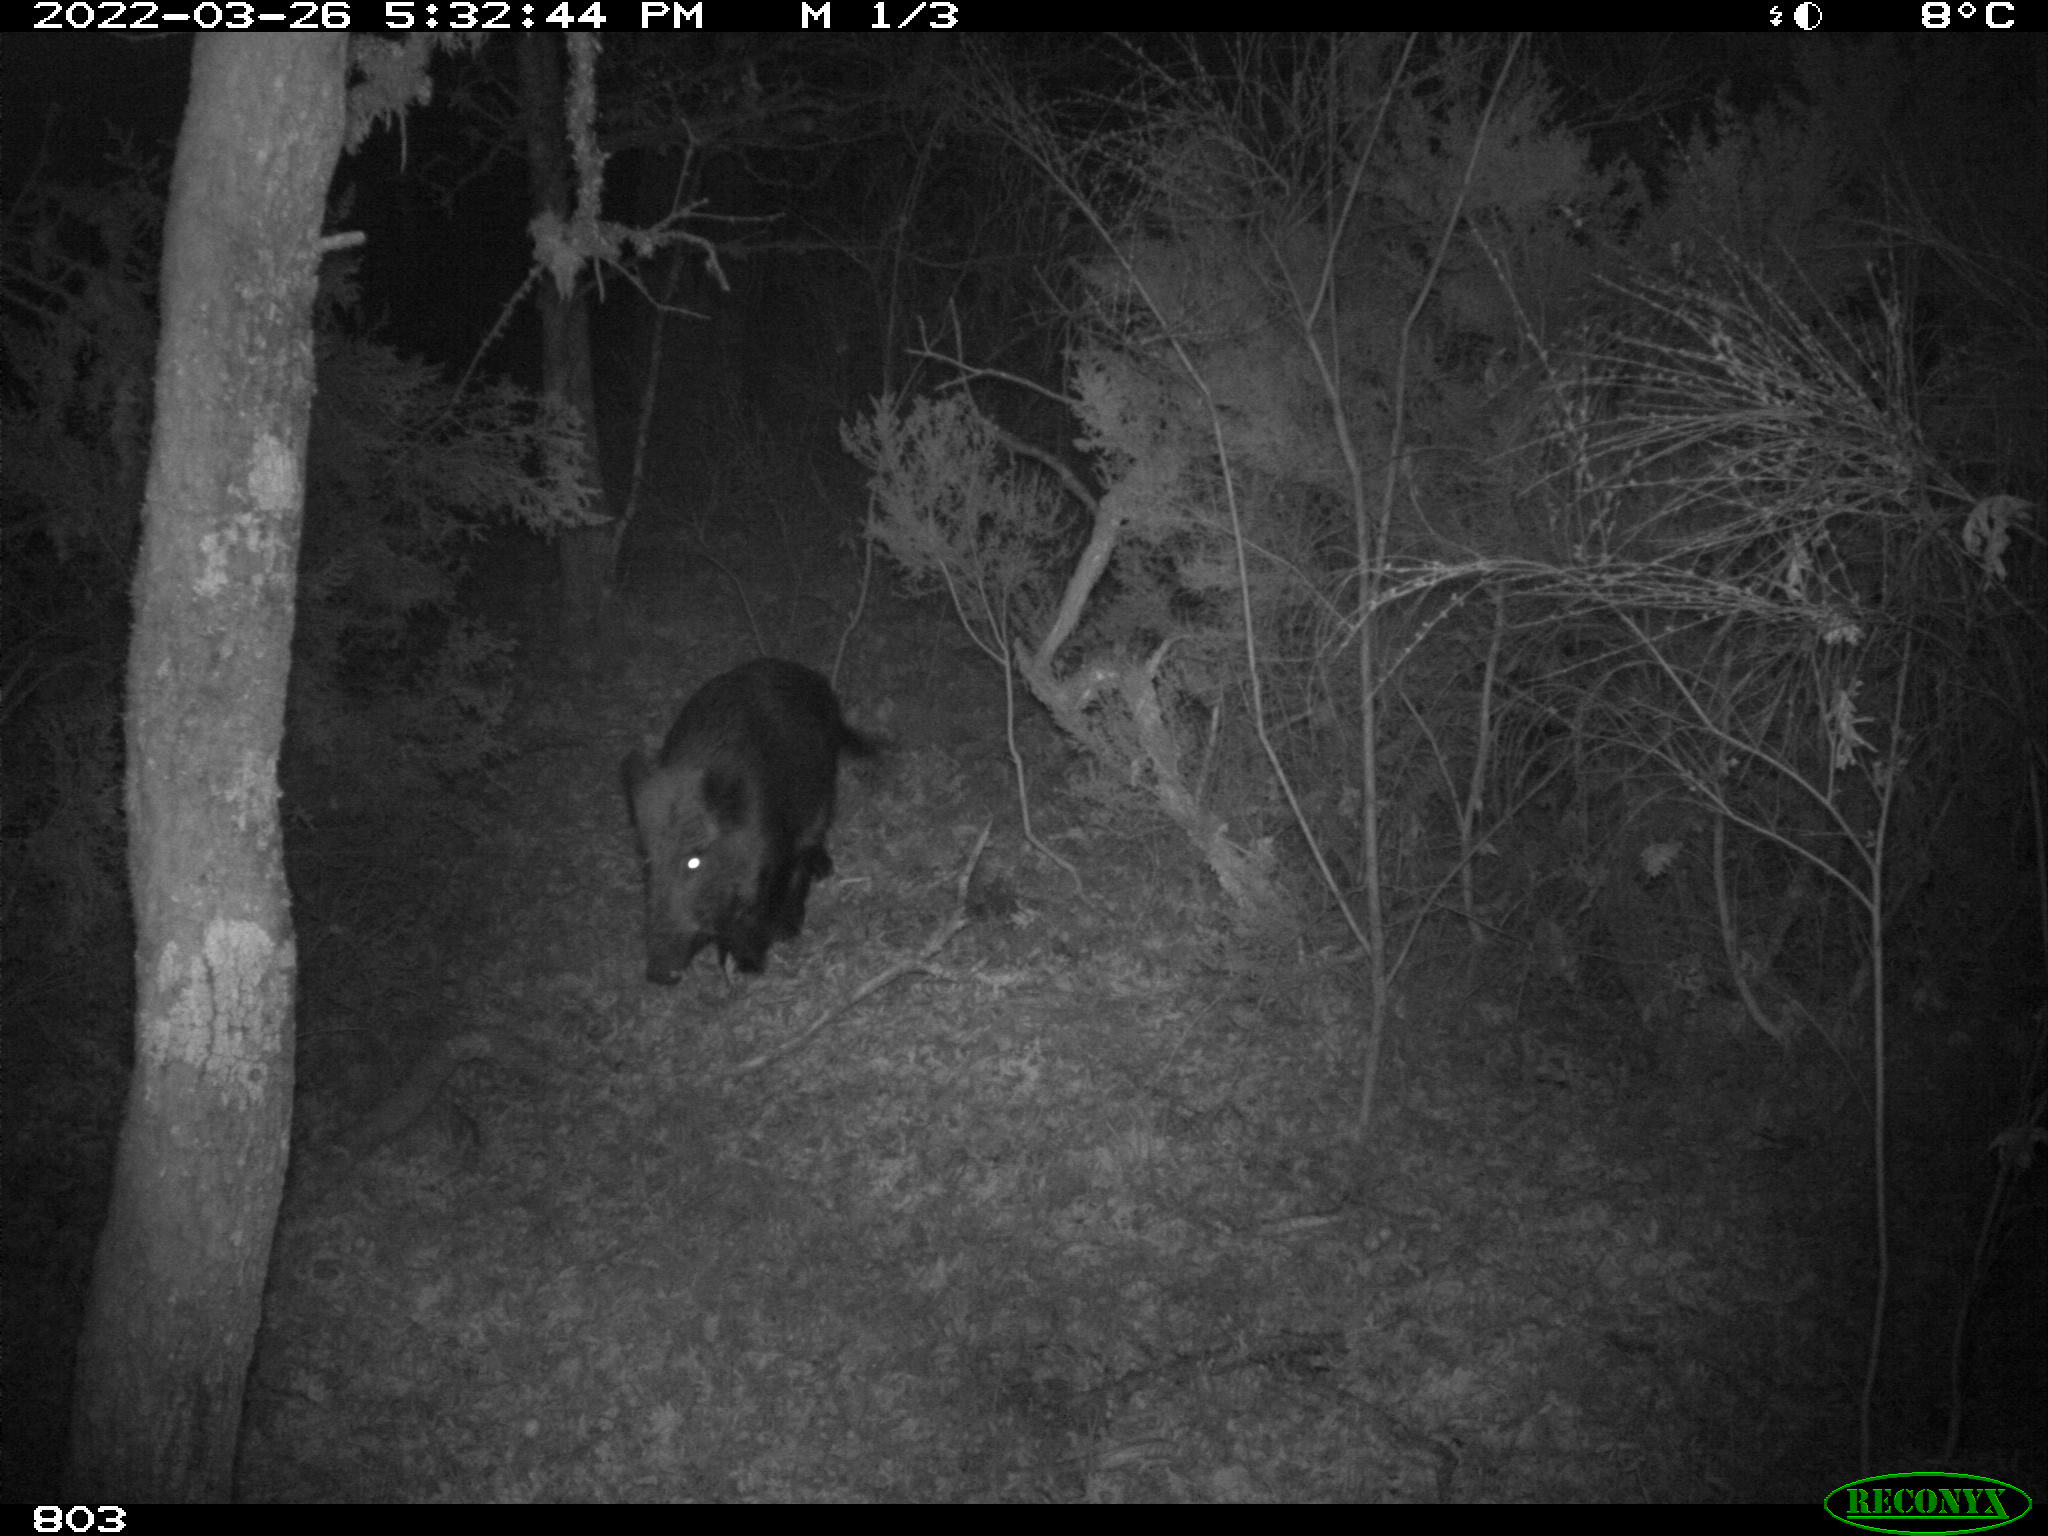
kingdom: Animalia
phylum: Chordata
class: Mammalia
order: Artiodactyla
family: Suidae
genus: Sus
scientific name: Sus scrofa
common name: Wild boar
